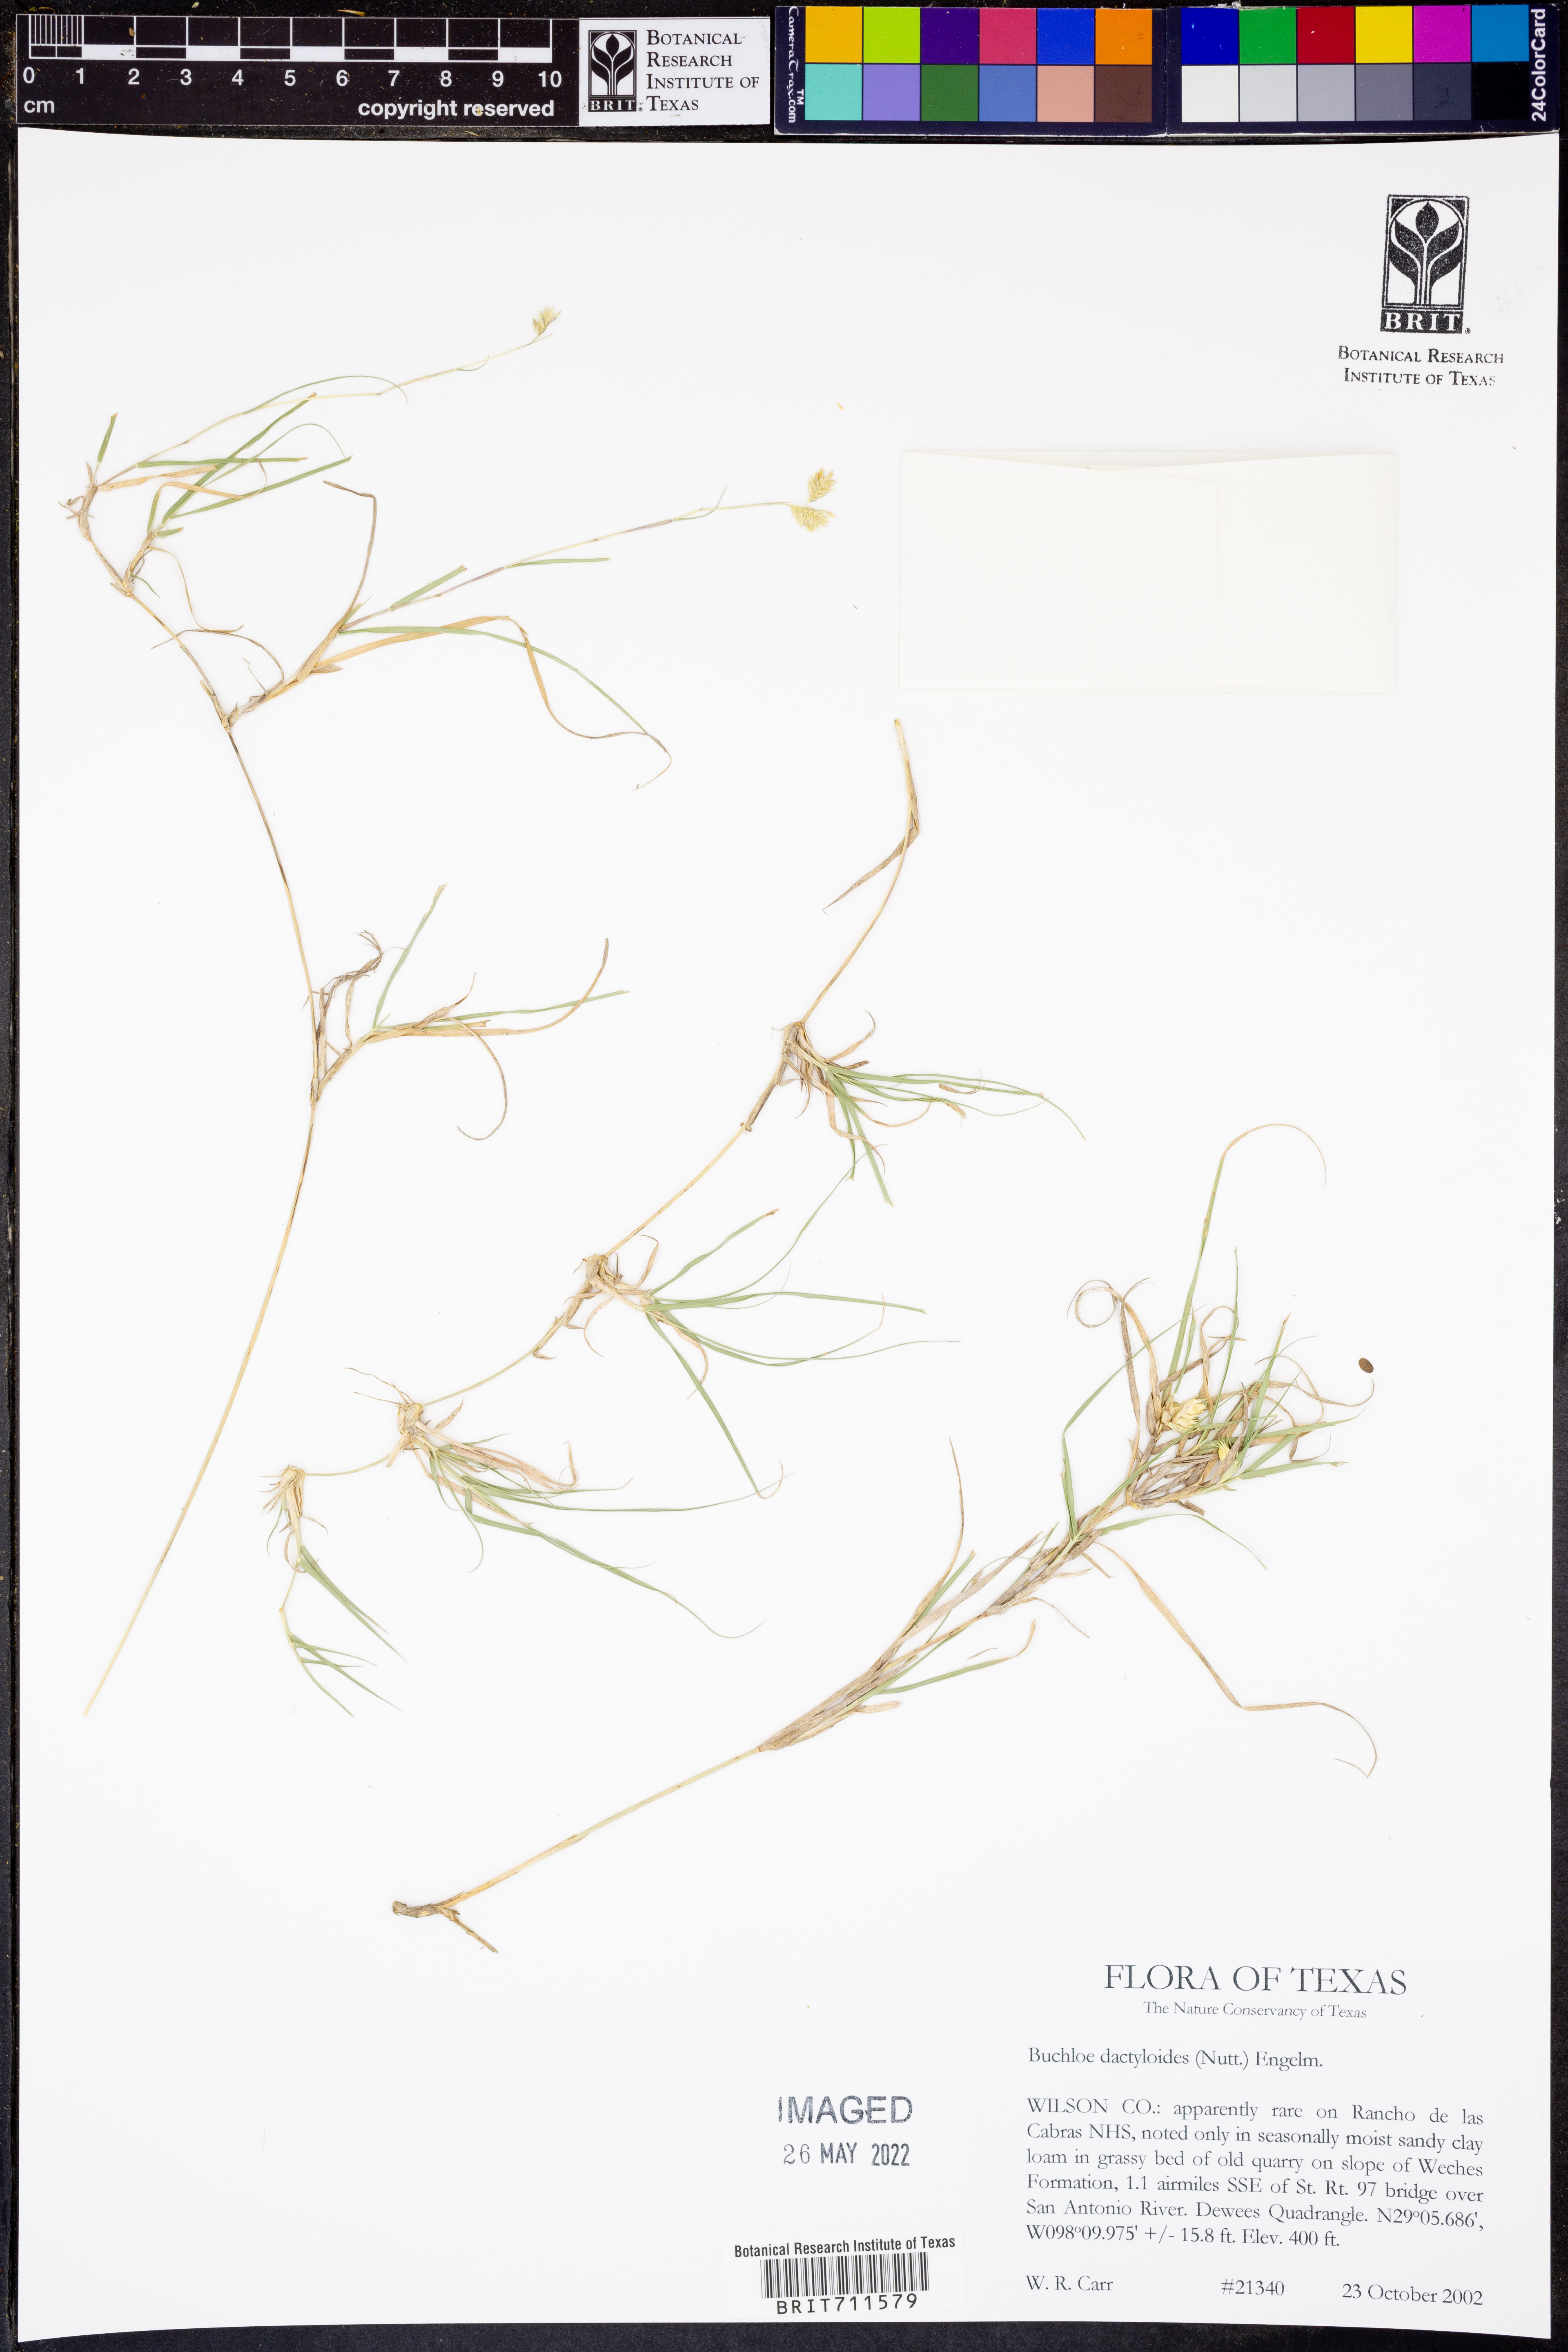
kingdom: Plantae
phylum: Tracheophyta
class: Liliopsida
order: Poales
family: Poaceae
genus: Bouteloua
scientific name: Bouteloua dactyloides
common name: Buffalo grass
